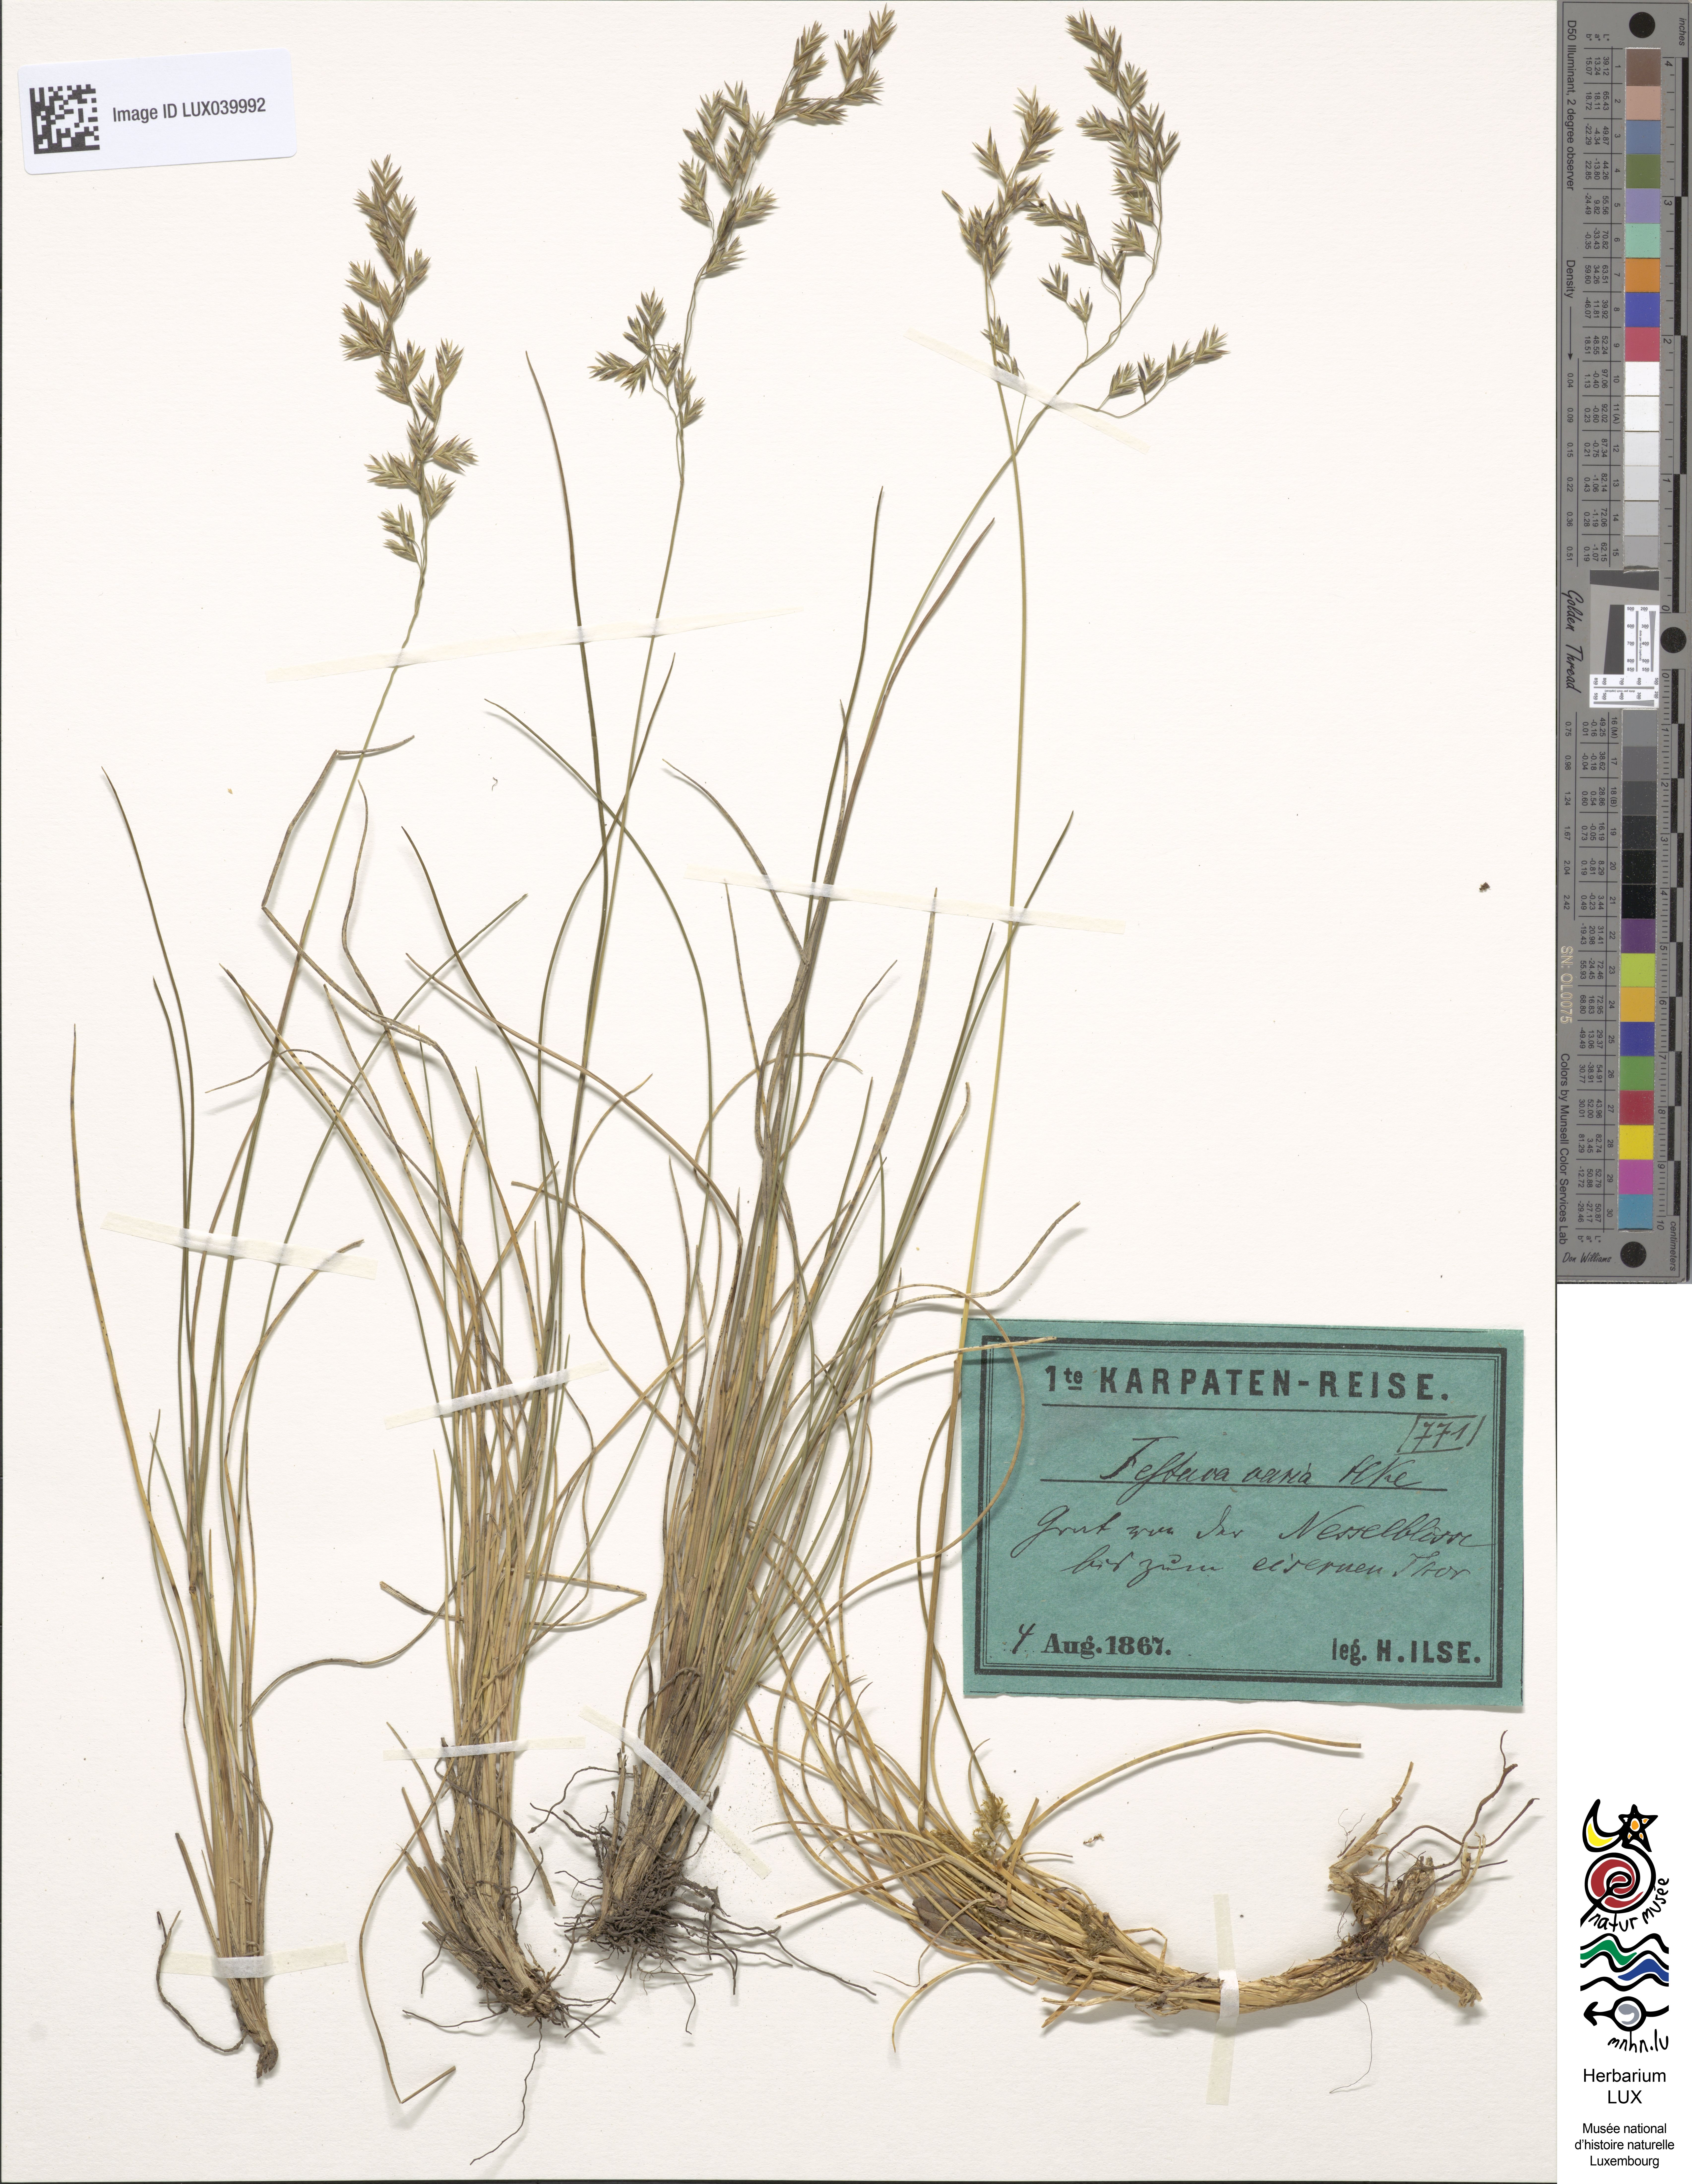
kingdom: Plantae
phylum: Tracheophyta
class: Liliopsida
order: Poales
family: Poaceae
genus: Festuca
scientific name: Festuca varia
